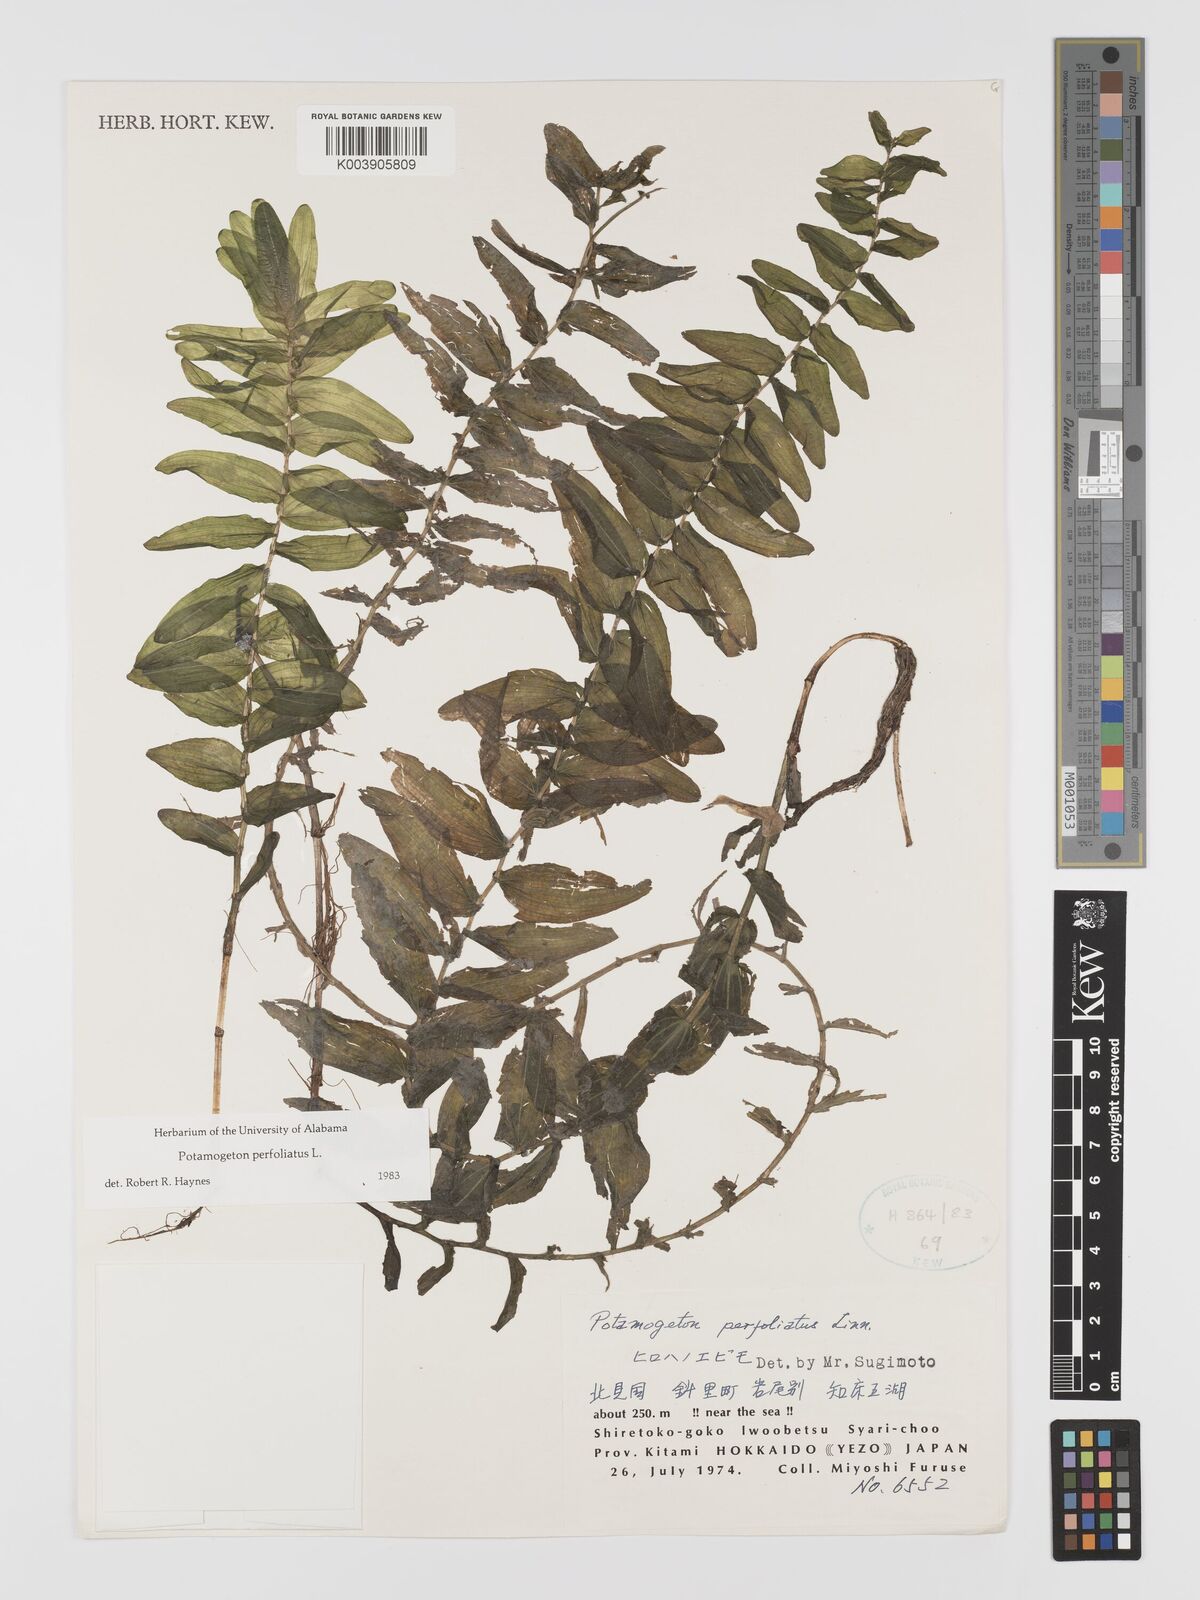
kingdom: Plantae
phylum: Tracheophyta
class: Liliopsida
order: Alismatales
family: Potamogetonaceae
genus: Potamogeton
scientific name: Potamogeton perfoliatus
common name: Perfoliate pondweed
